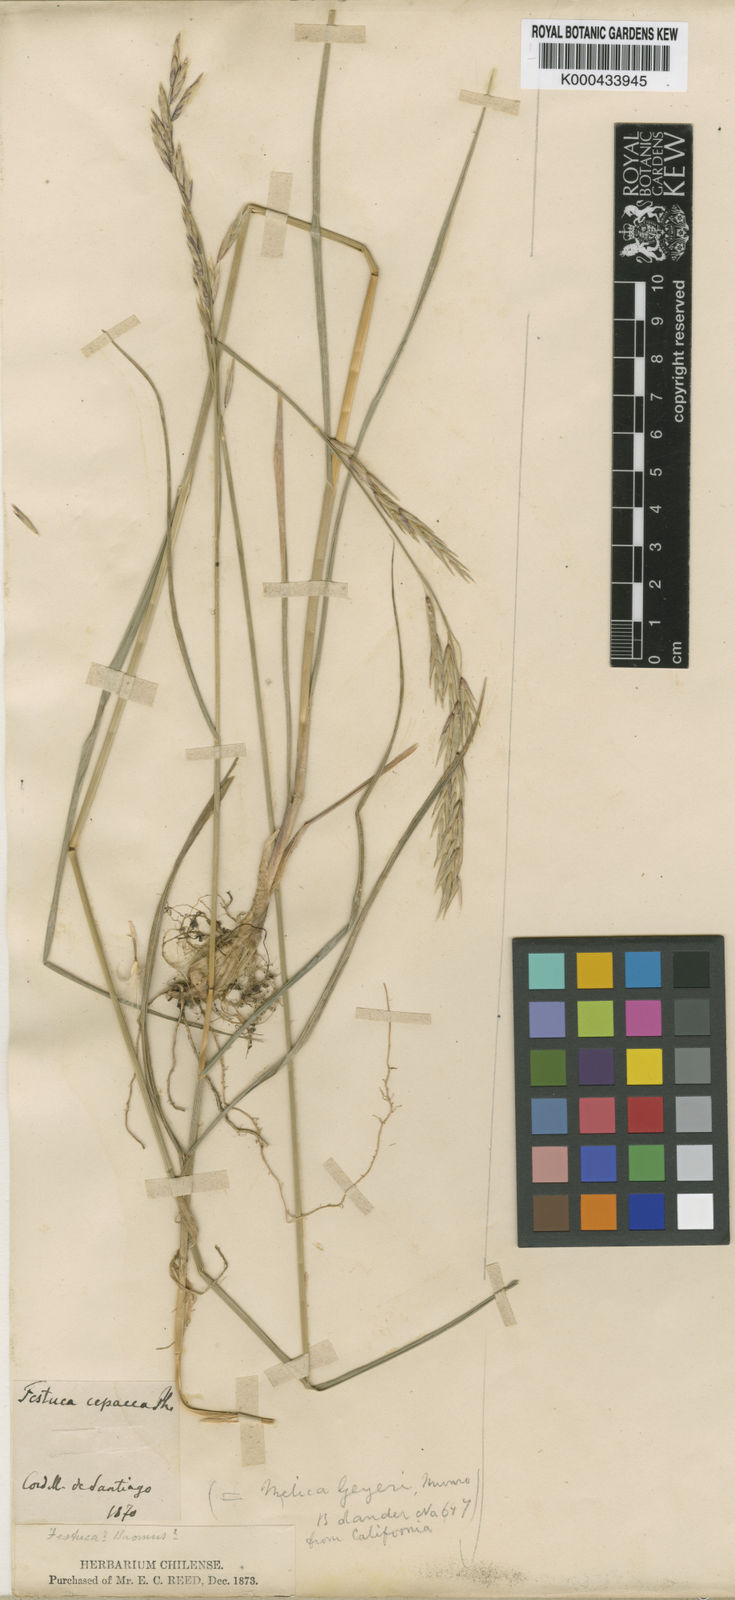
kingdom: Plantae
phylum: Tracheophyta
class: Liliopsida
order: Poales
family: Poaceae
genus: Melica
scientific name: Melica cepacea
